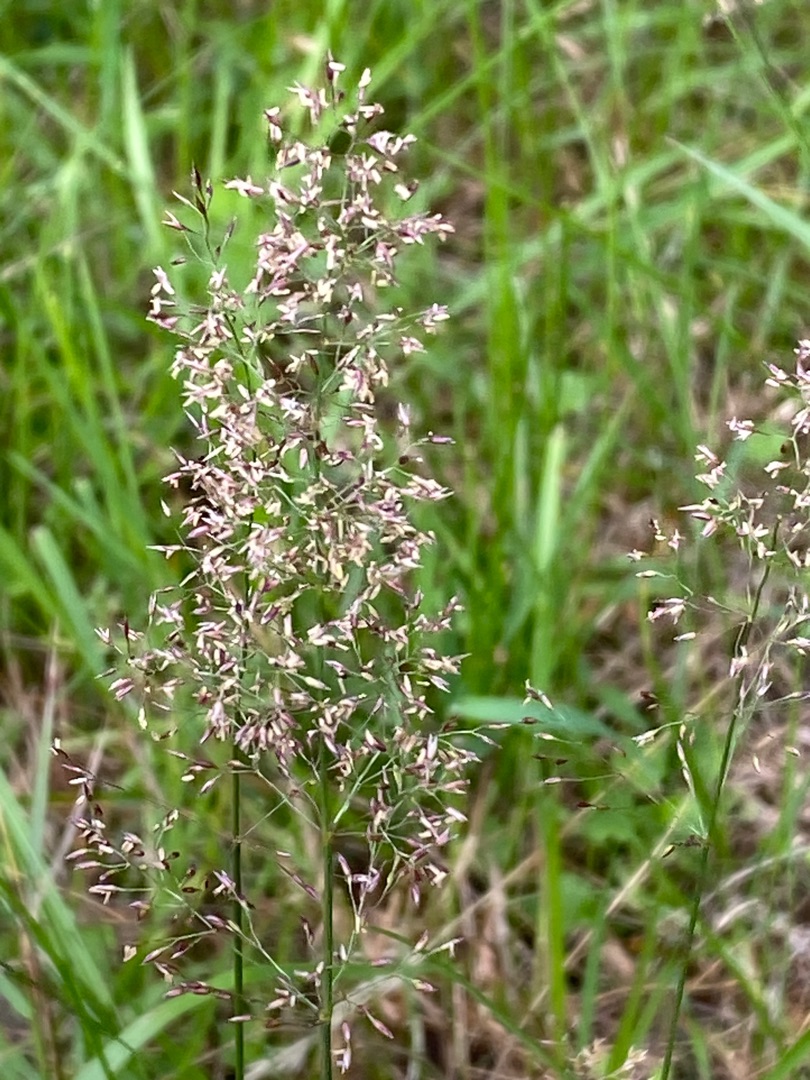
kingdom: Plantae
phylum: Tracheophyta
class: Liliopsida
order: Poales
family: Poaceae
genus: Agrostis
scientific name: Agrostis capillaris
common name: Almindelig hvene
